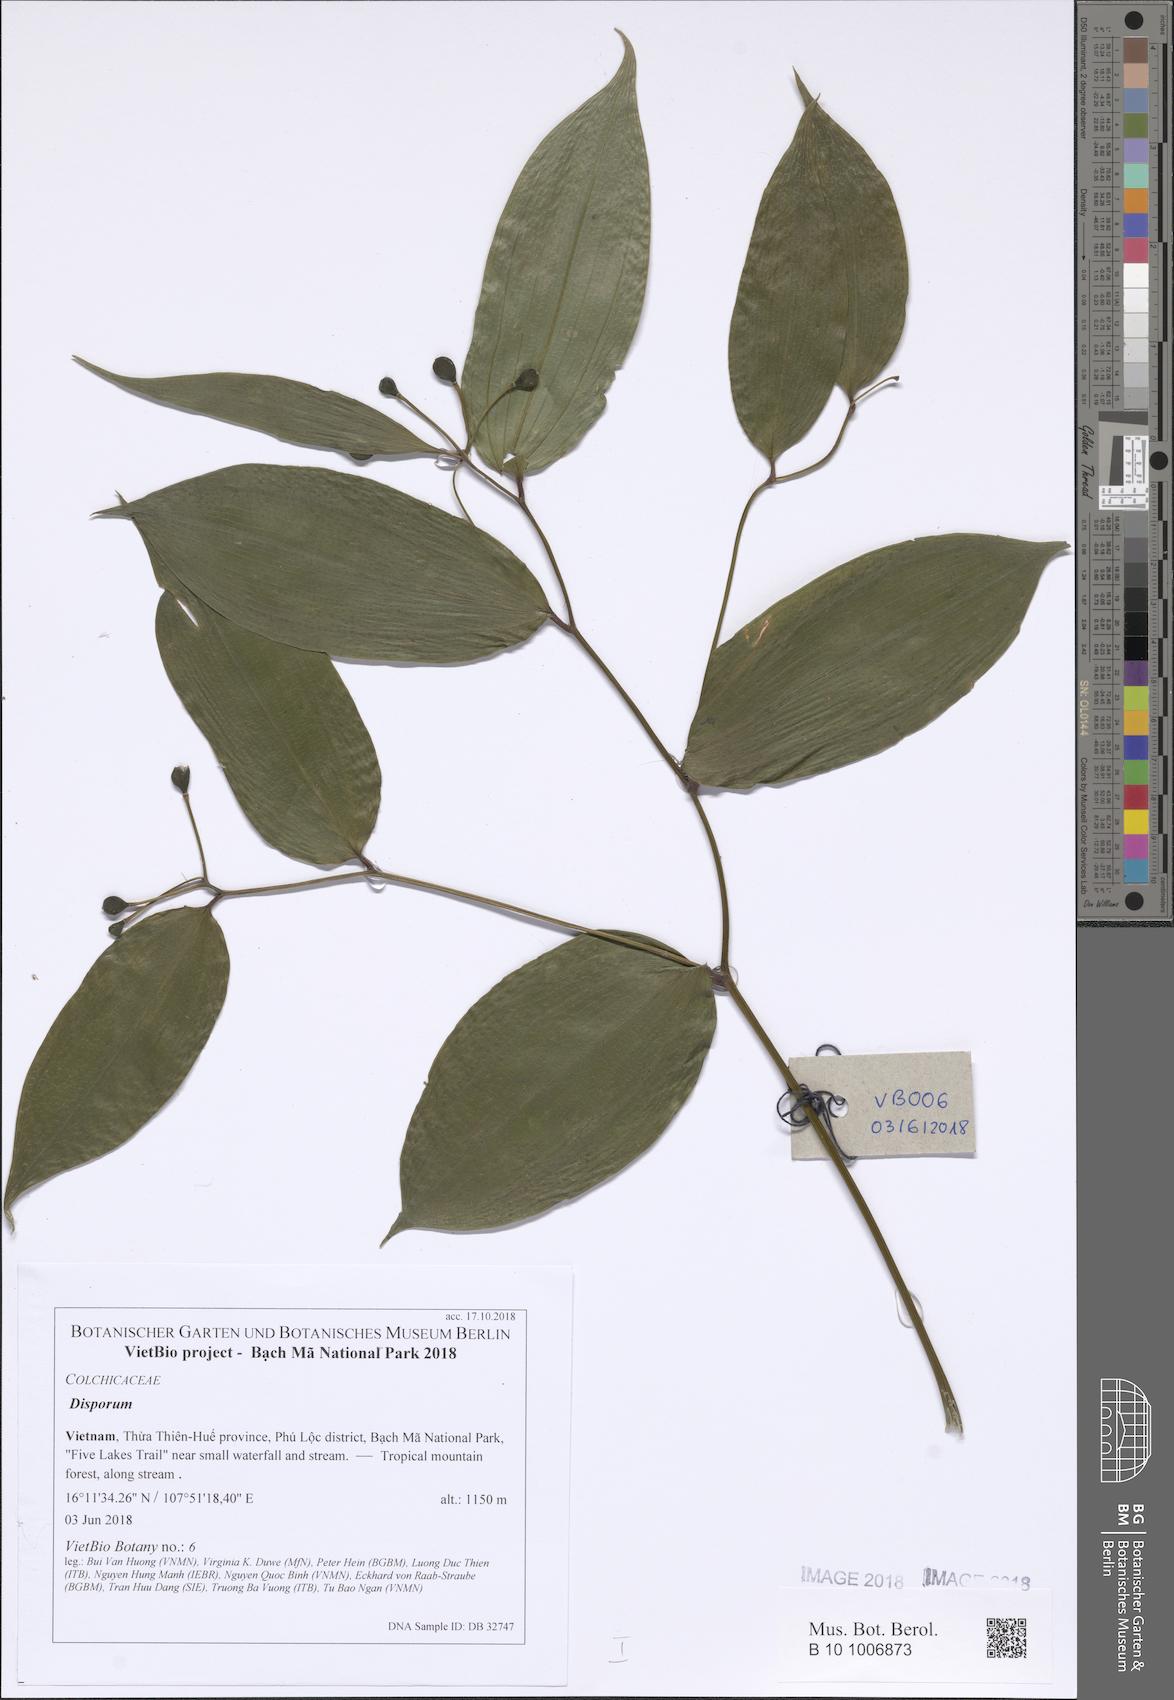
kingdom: Plantae
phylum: Tracheophyta
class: Liliopsida
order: Asparagales
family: Asparagaceae
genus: Disporum
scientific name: Disporum
